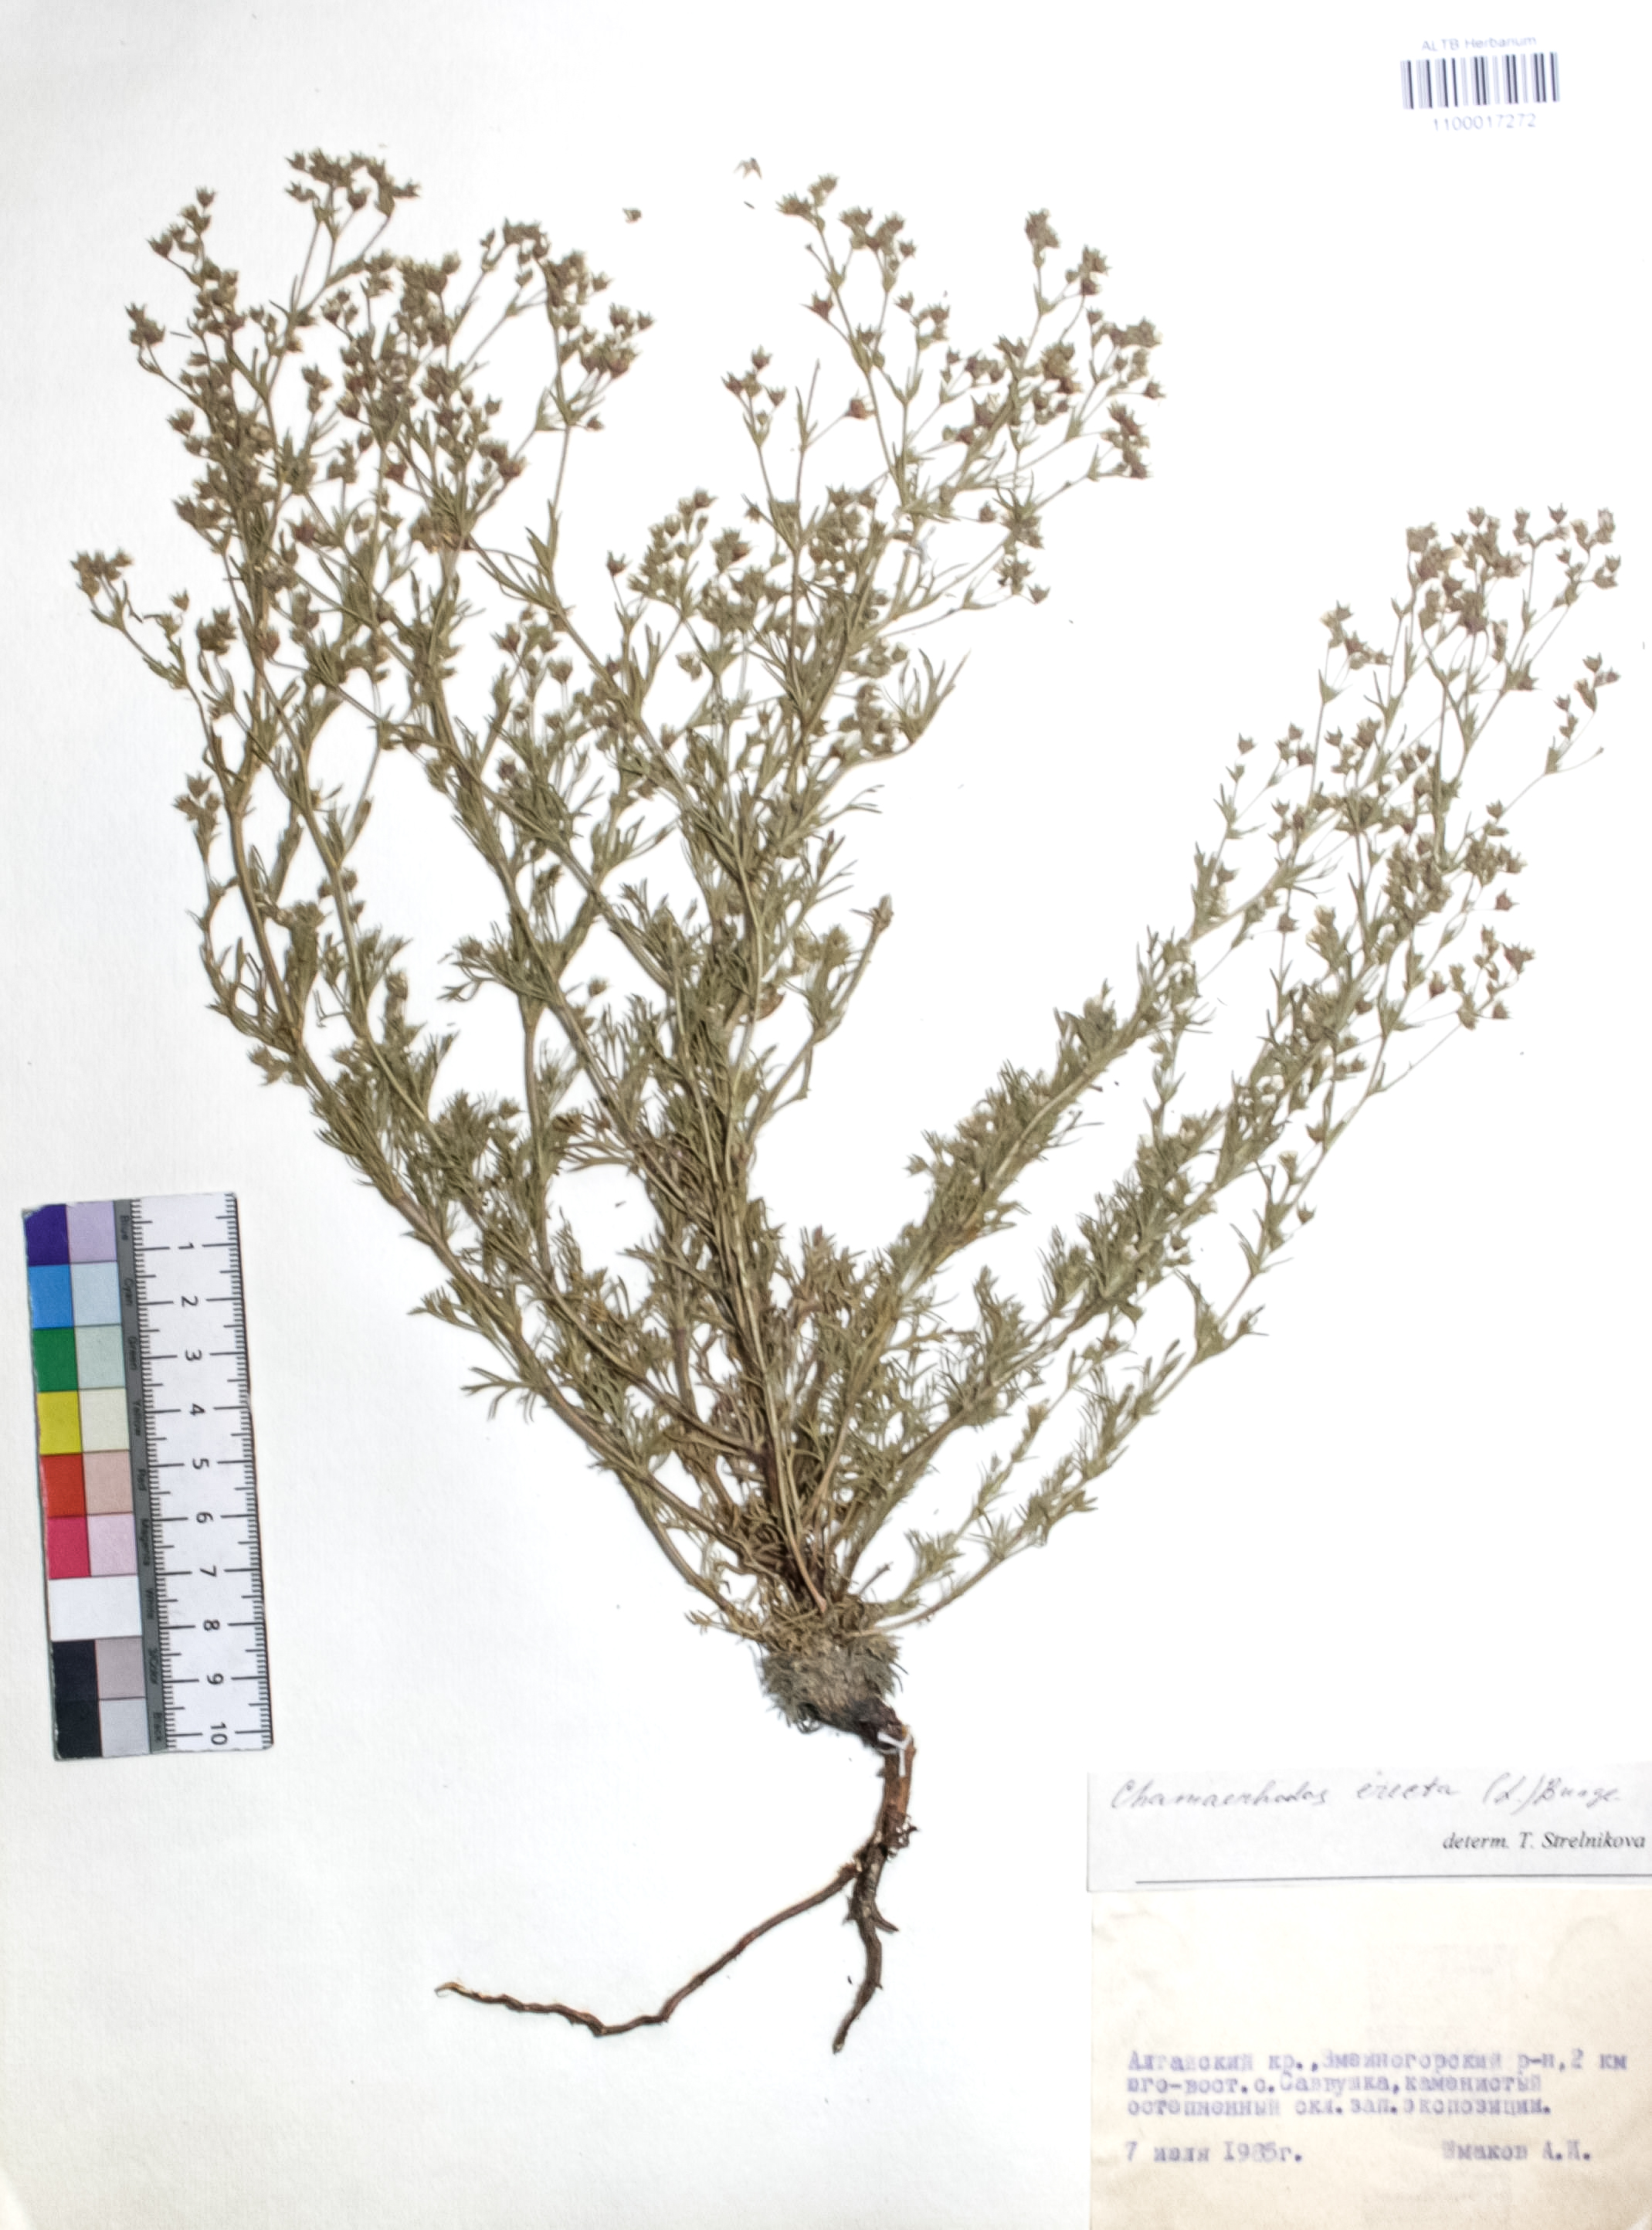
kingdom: Plantae
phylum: Tracheophyta
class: Magnoliopsida
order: Rosales
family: Rosaceae
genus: Chamaerhodos
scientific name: Chamaerhodos erecta
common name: American chamaerhodos
